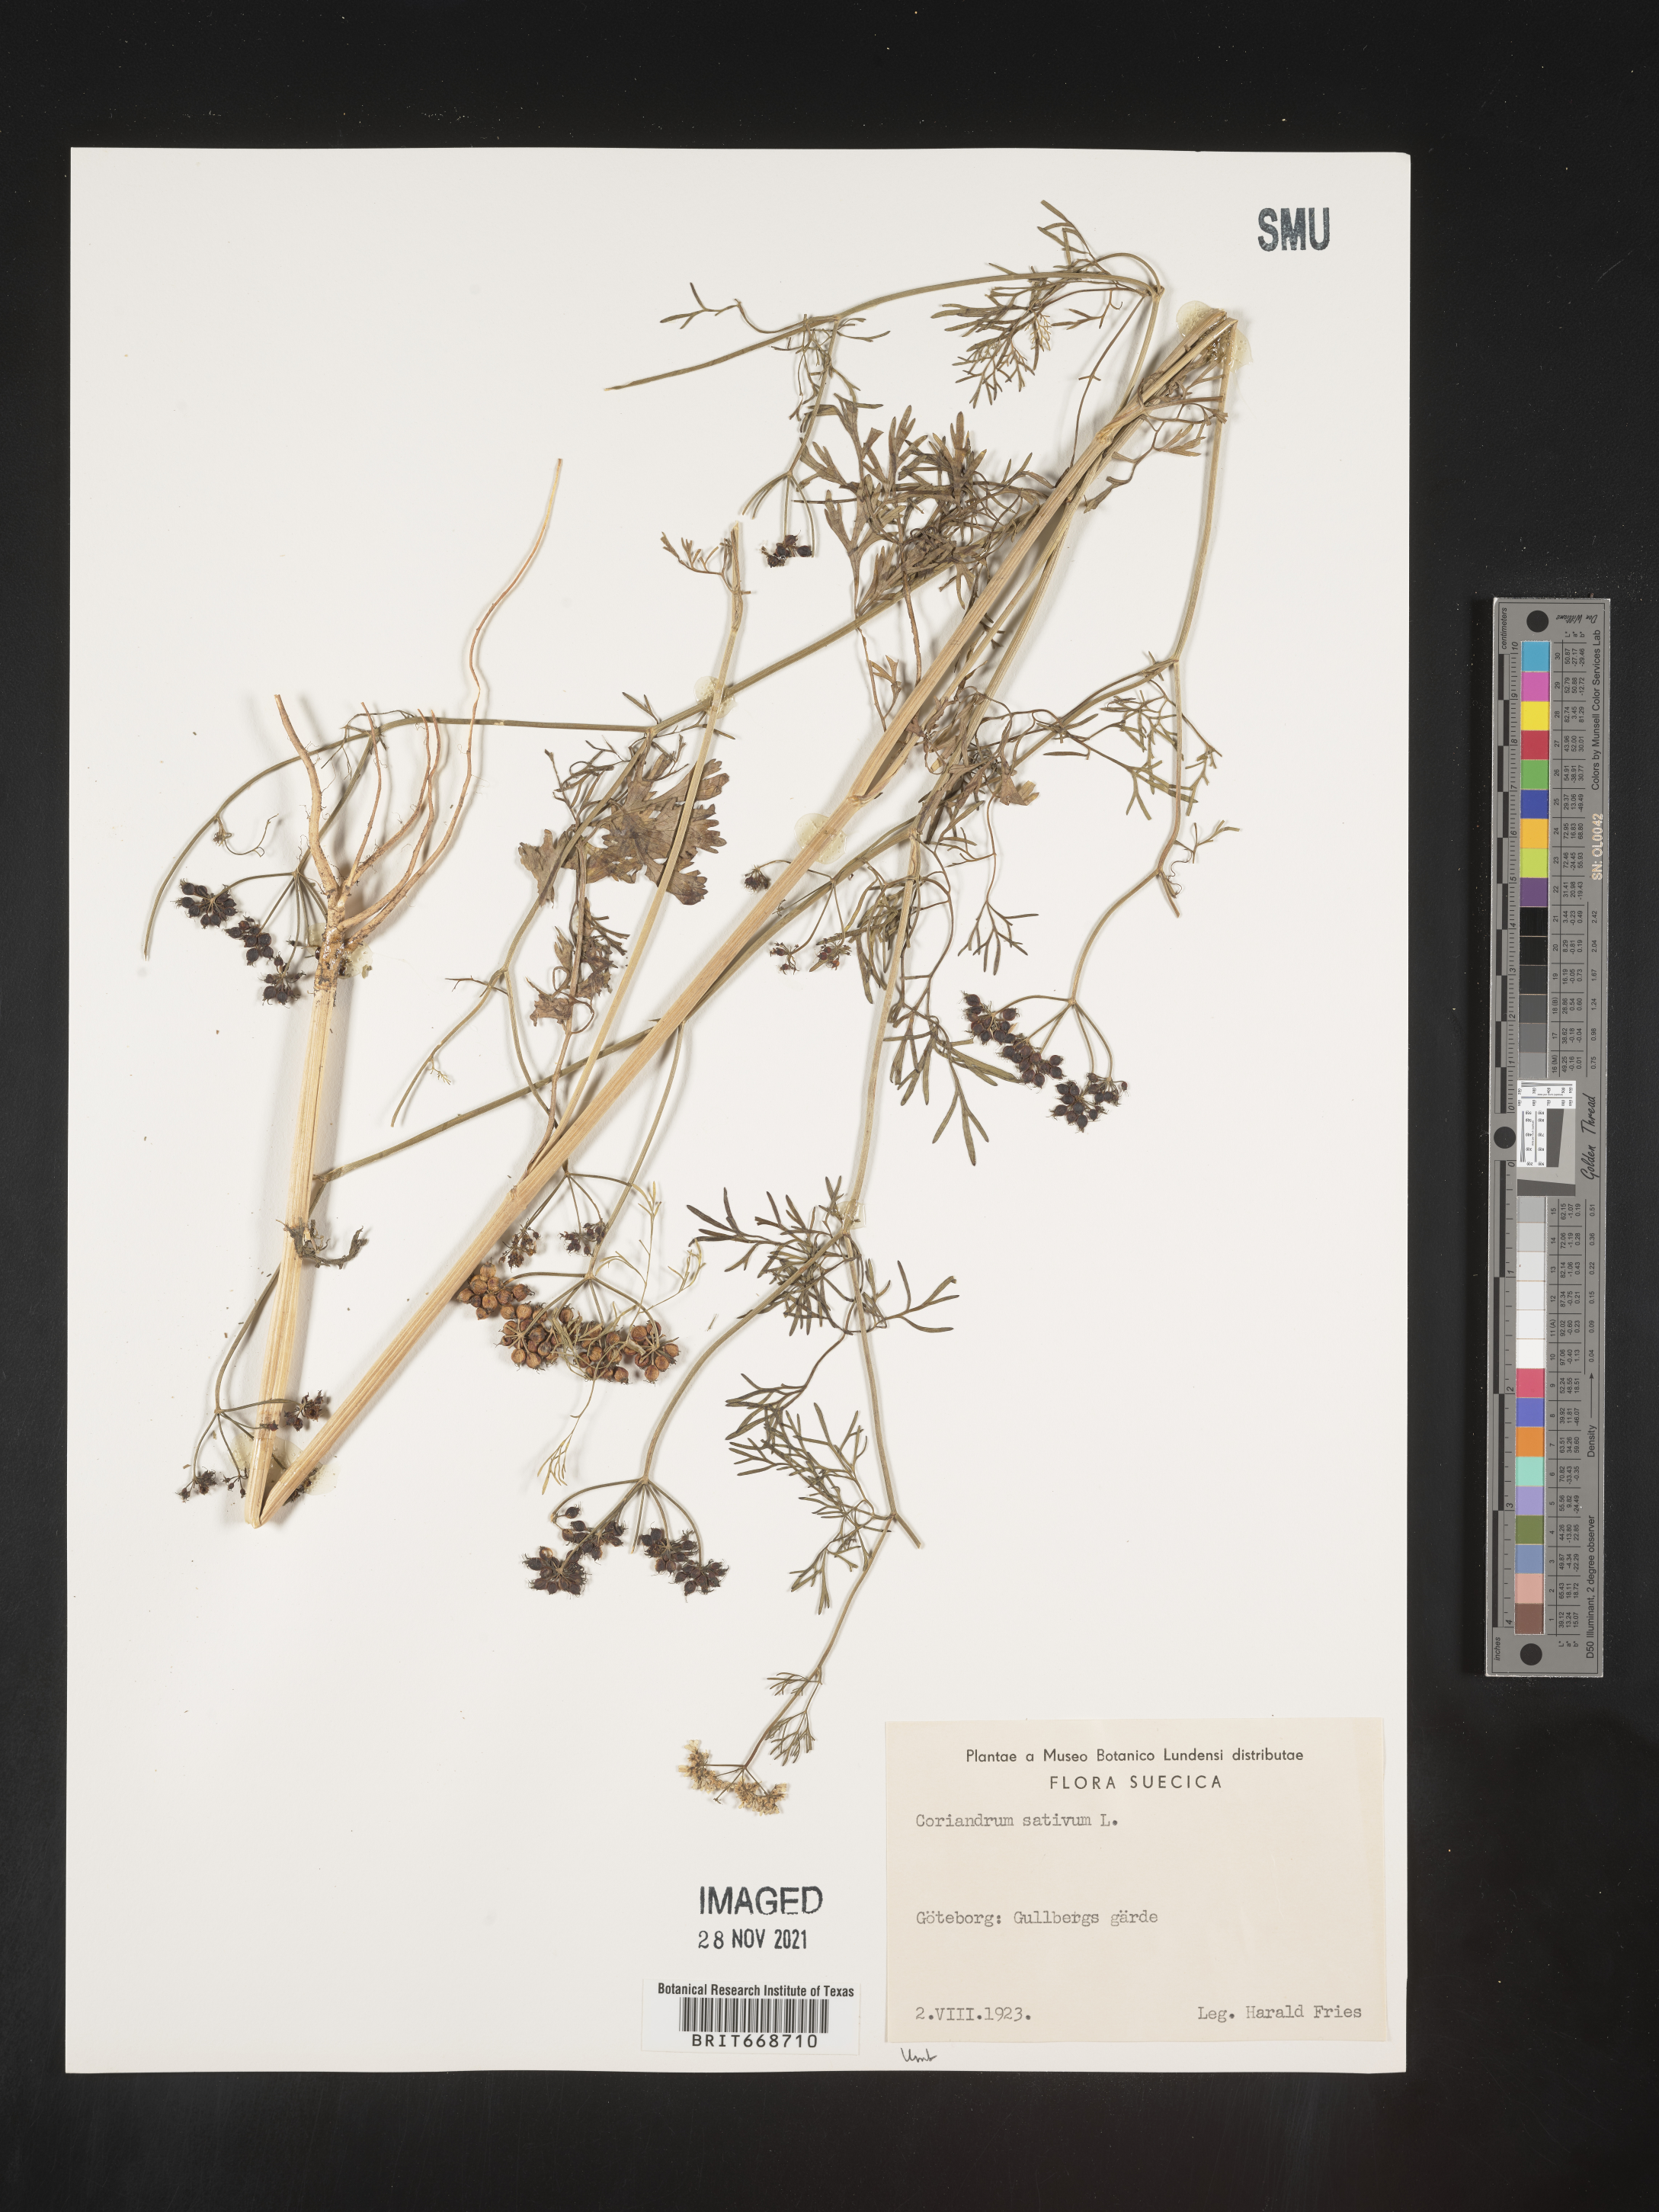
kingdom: Plantae
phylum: Tracheophyta
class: Magnoliopsida
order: Apiales
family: Apiaceae
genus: Coriandrum
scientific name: Coriandrum
